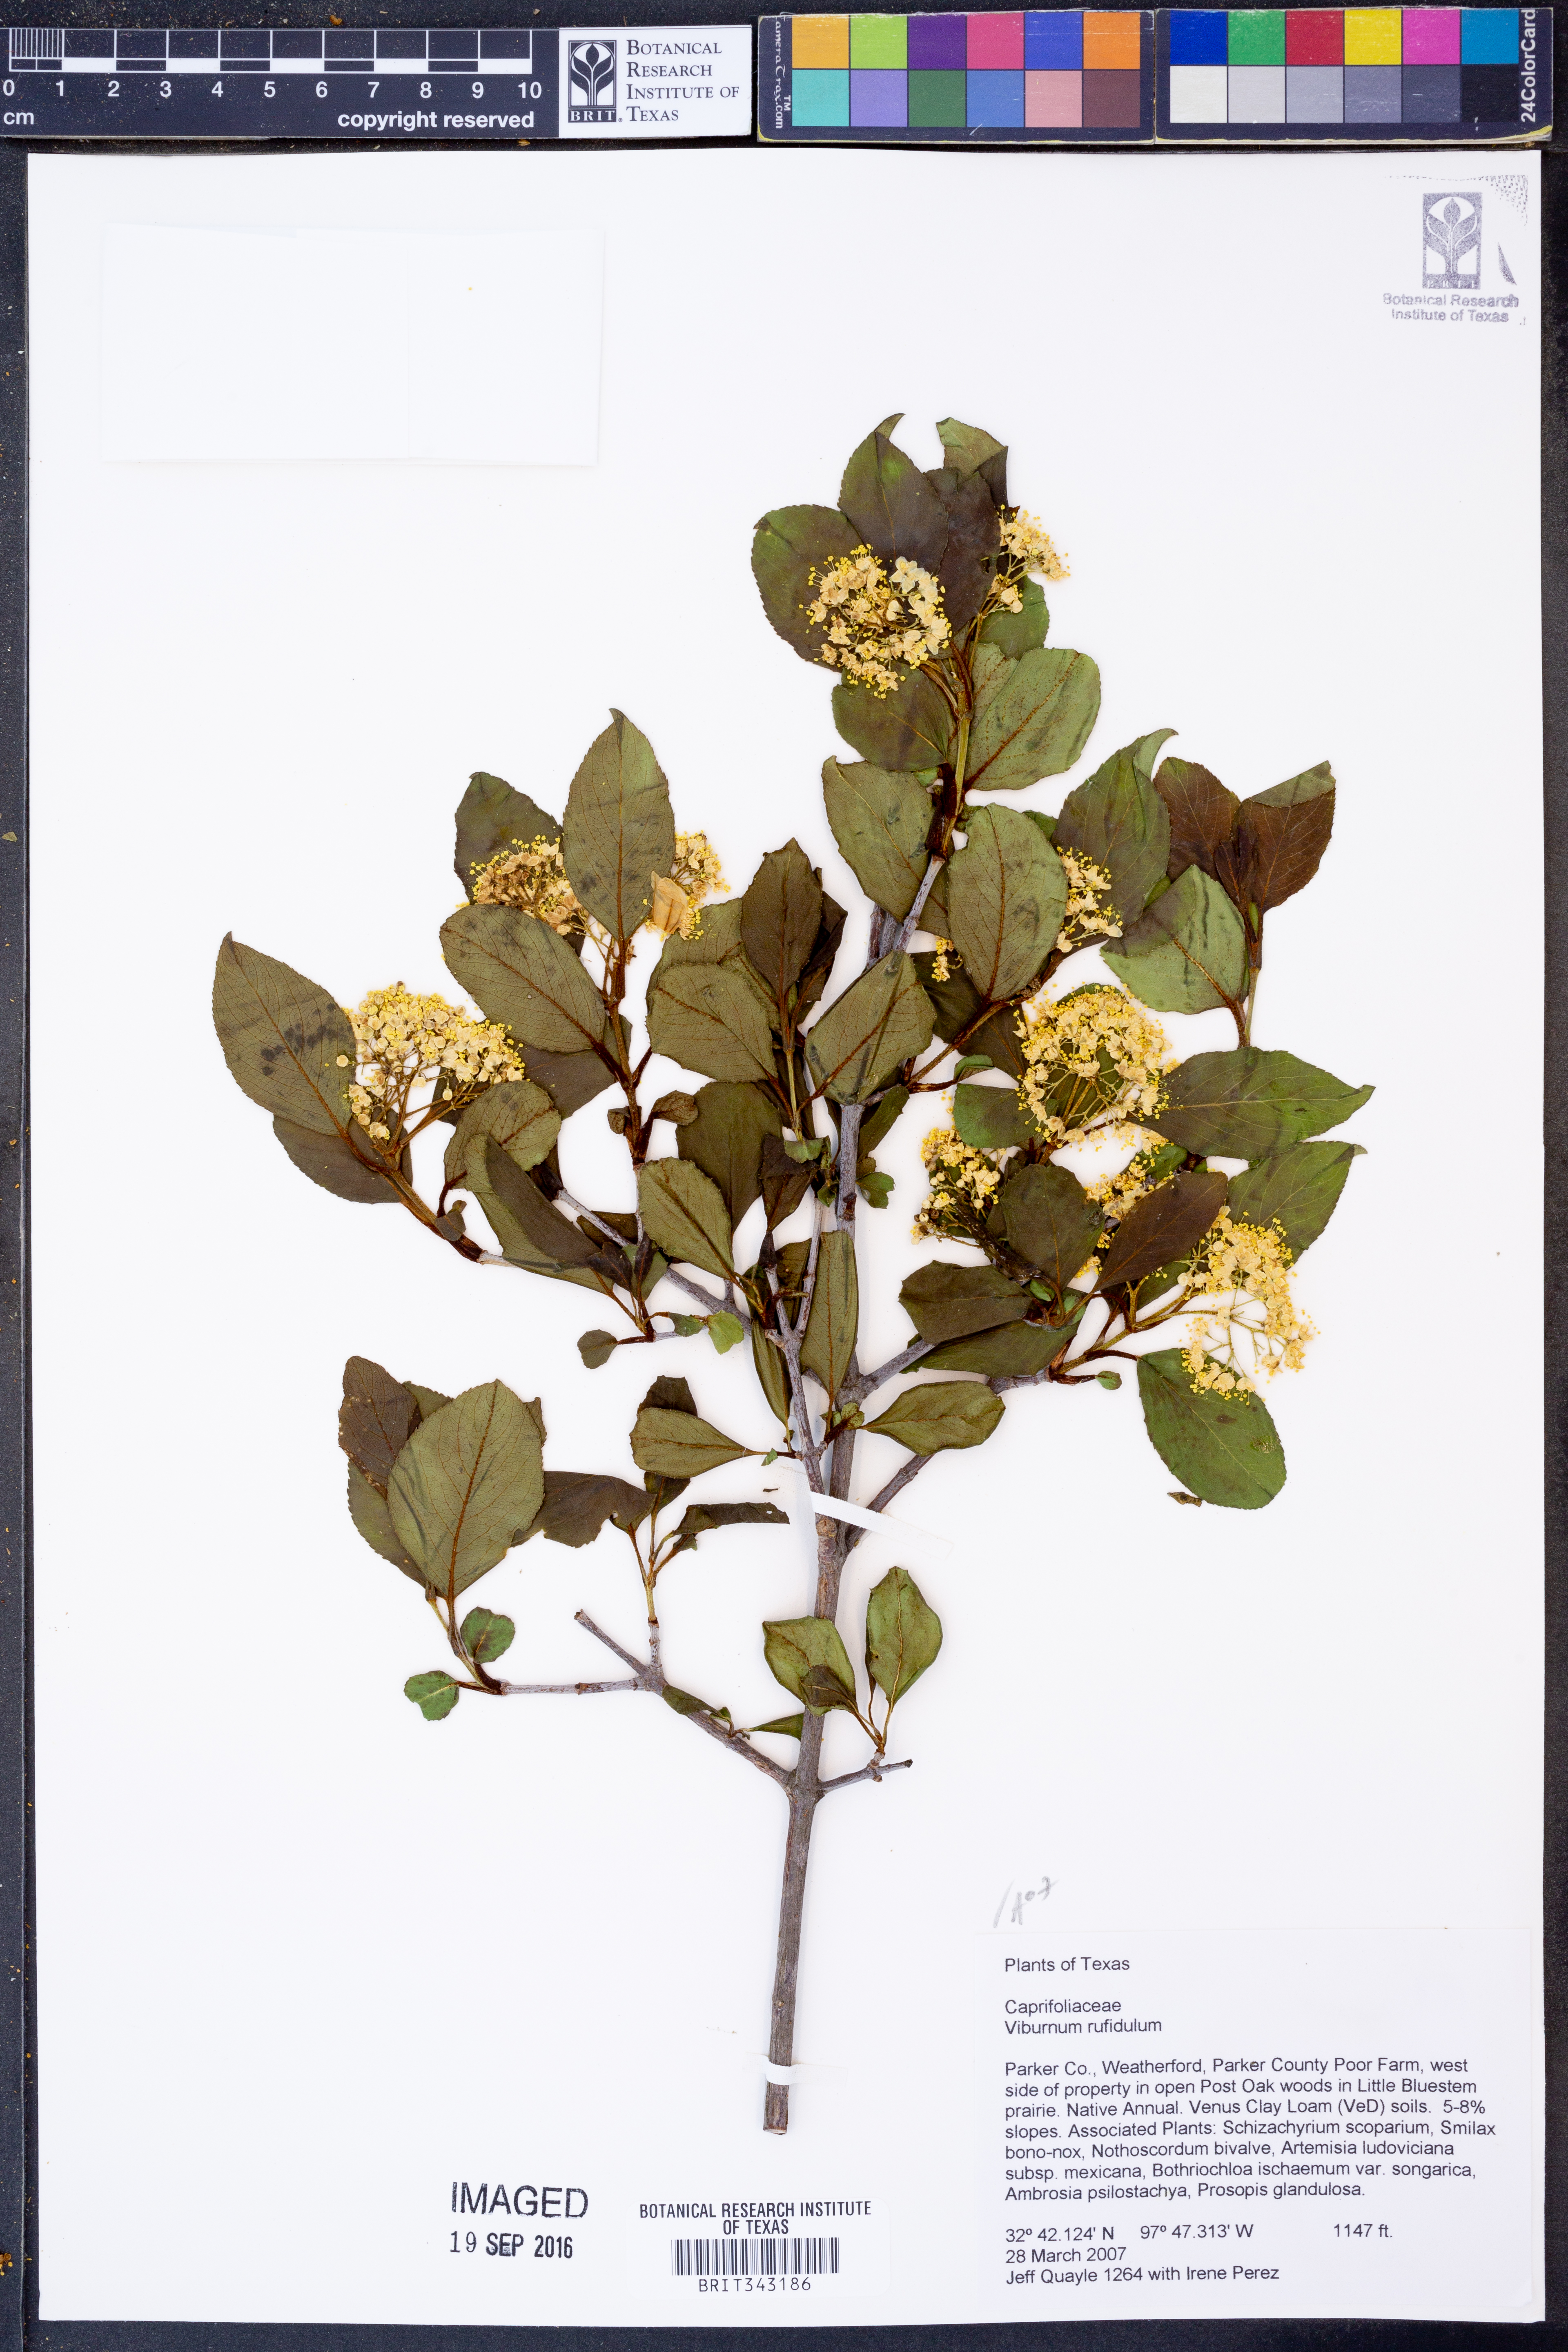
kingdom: Plantae
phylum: Tracheophyta
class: Magnoliopsida
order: Dipsacales
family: Viburnaceae
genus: Viburnum
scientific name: Viburnum rufidulum
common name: Blue haw
